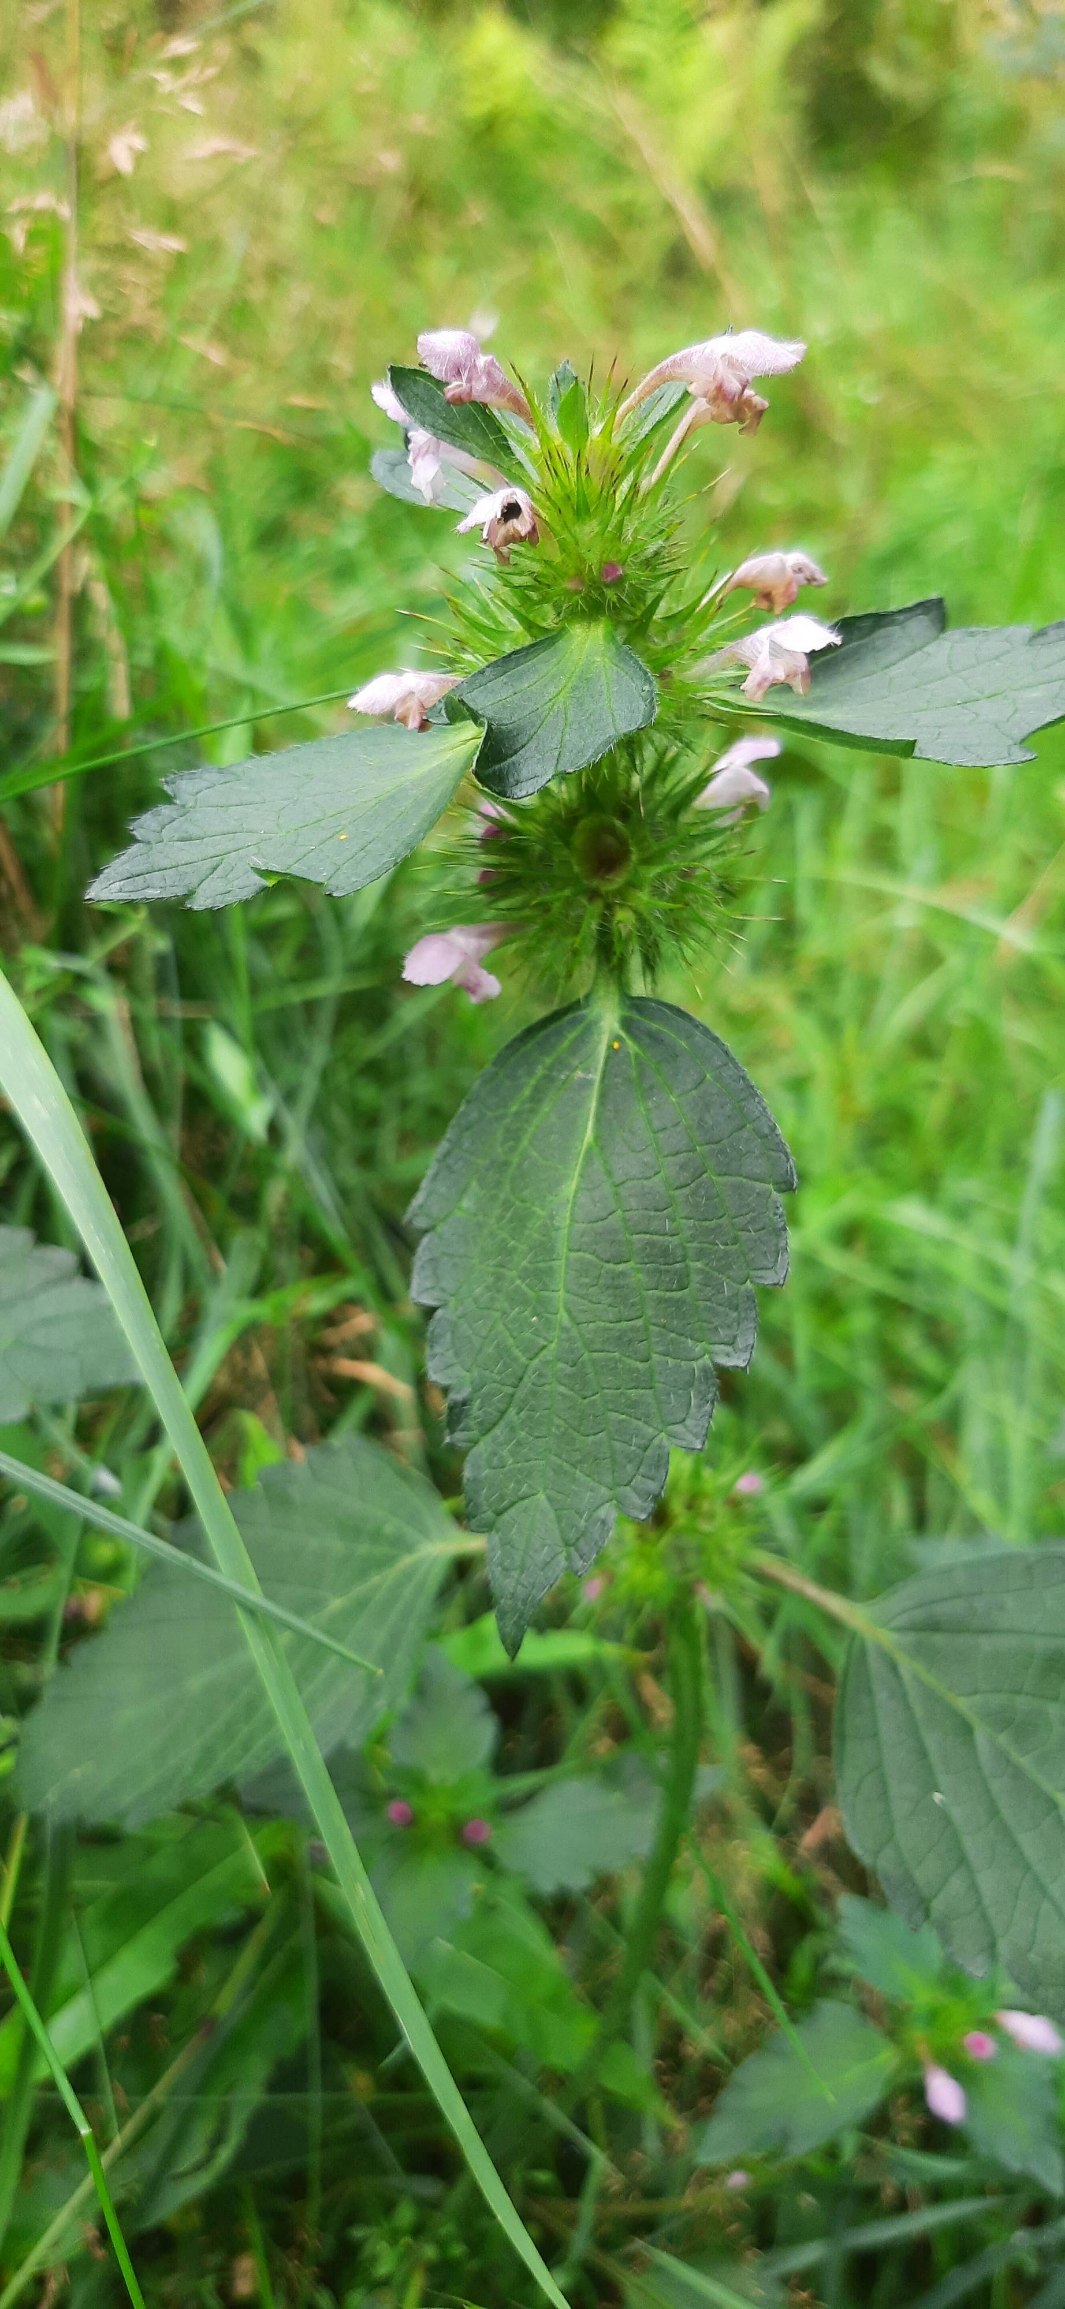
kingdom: Plantae
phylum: Tracheophyta
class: Magnoliopsida
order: Lamiales
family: Lamiaceae
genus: Galeopsis
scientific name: Galeopsis tetrahit
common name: Almindelig hanekro
